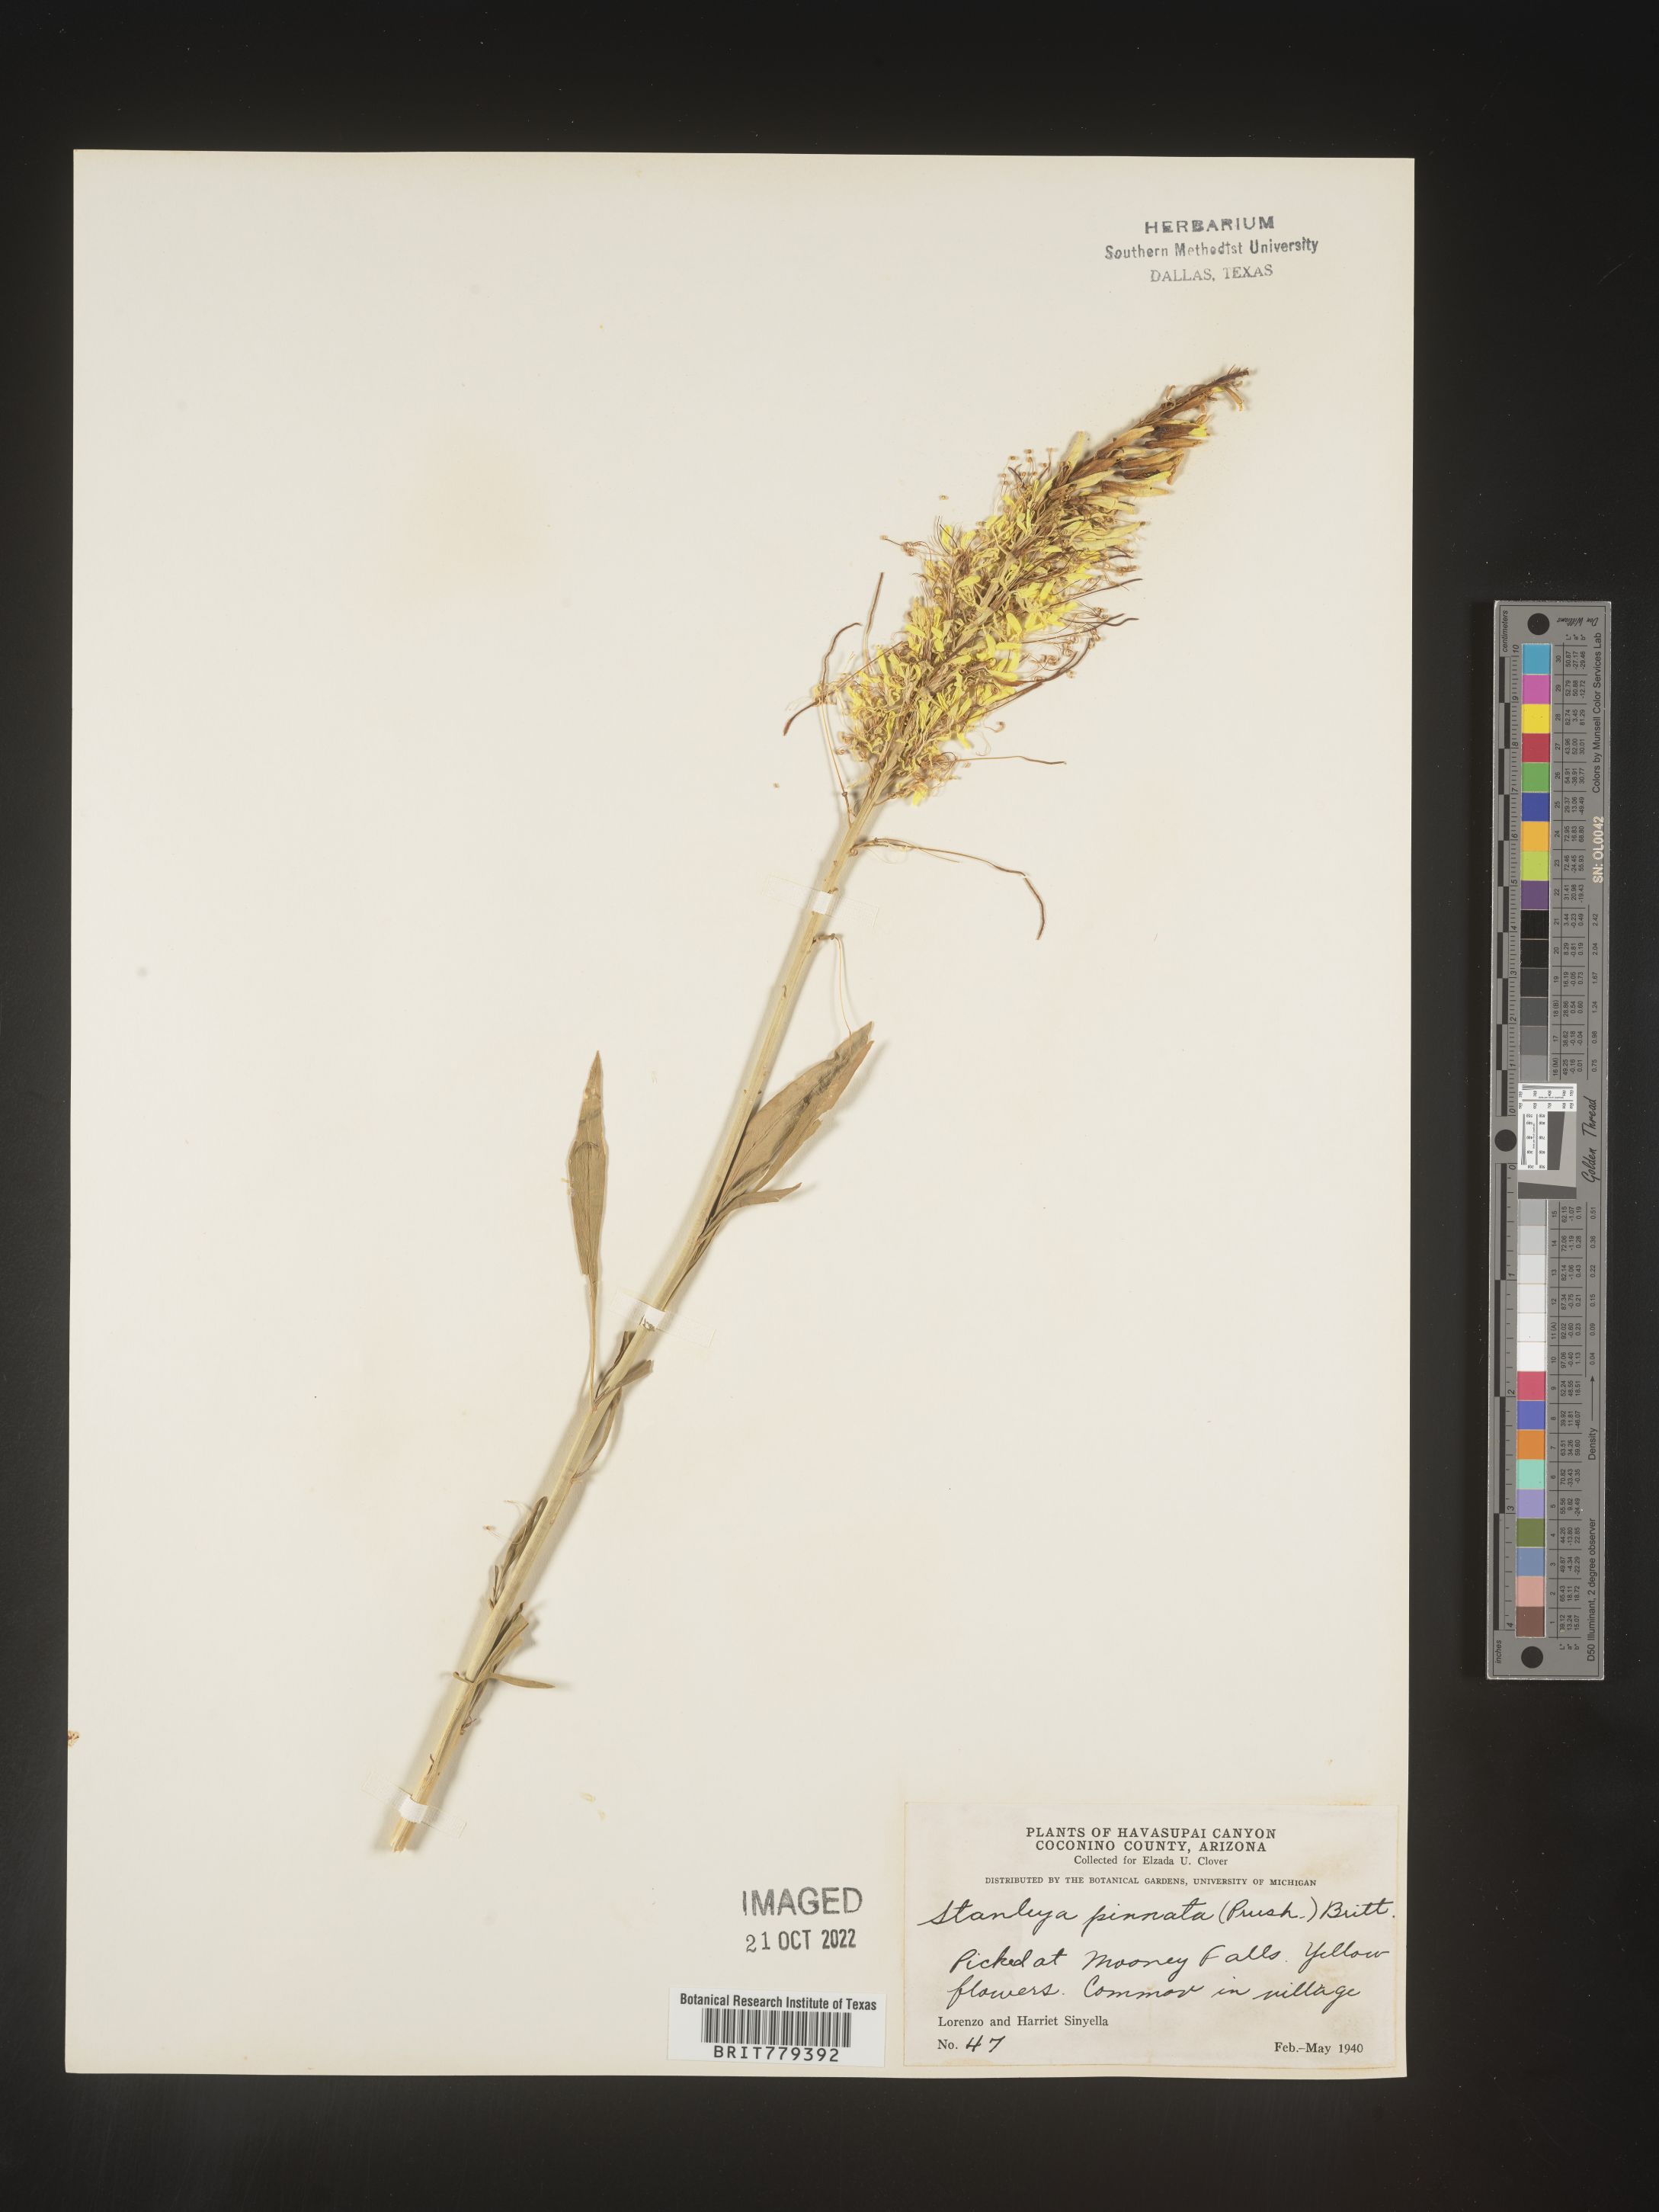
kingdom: Plantae
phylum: Tracheophyta
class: Magnoliopsida
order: Brassicales
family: Brassicaceae
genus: Stanleya
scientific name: Stanleya pinnata
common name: Prince's-plume
